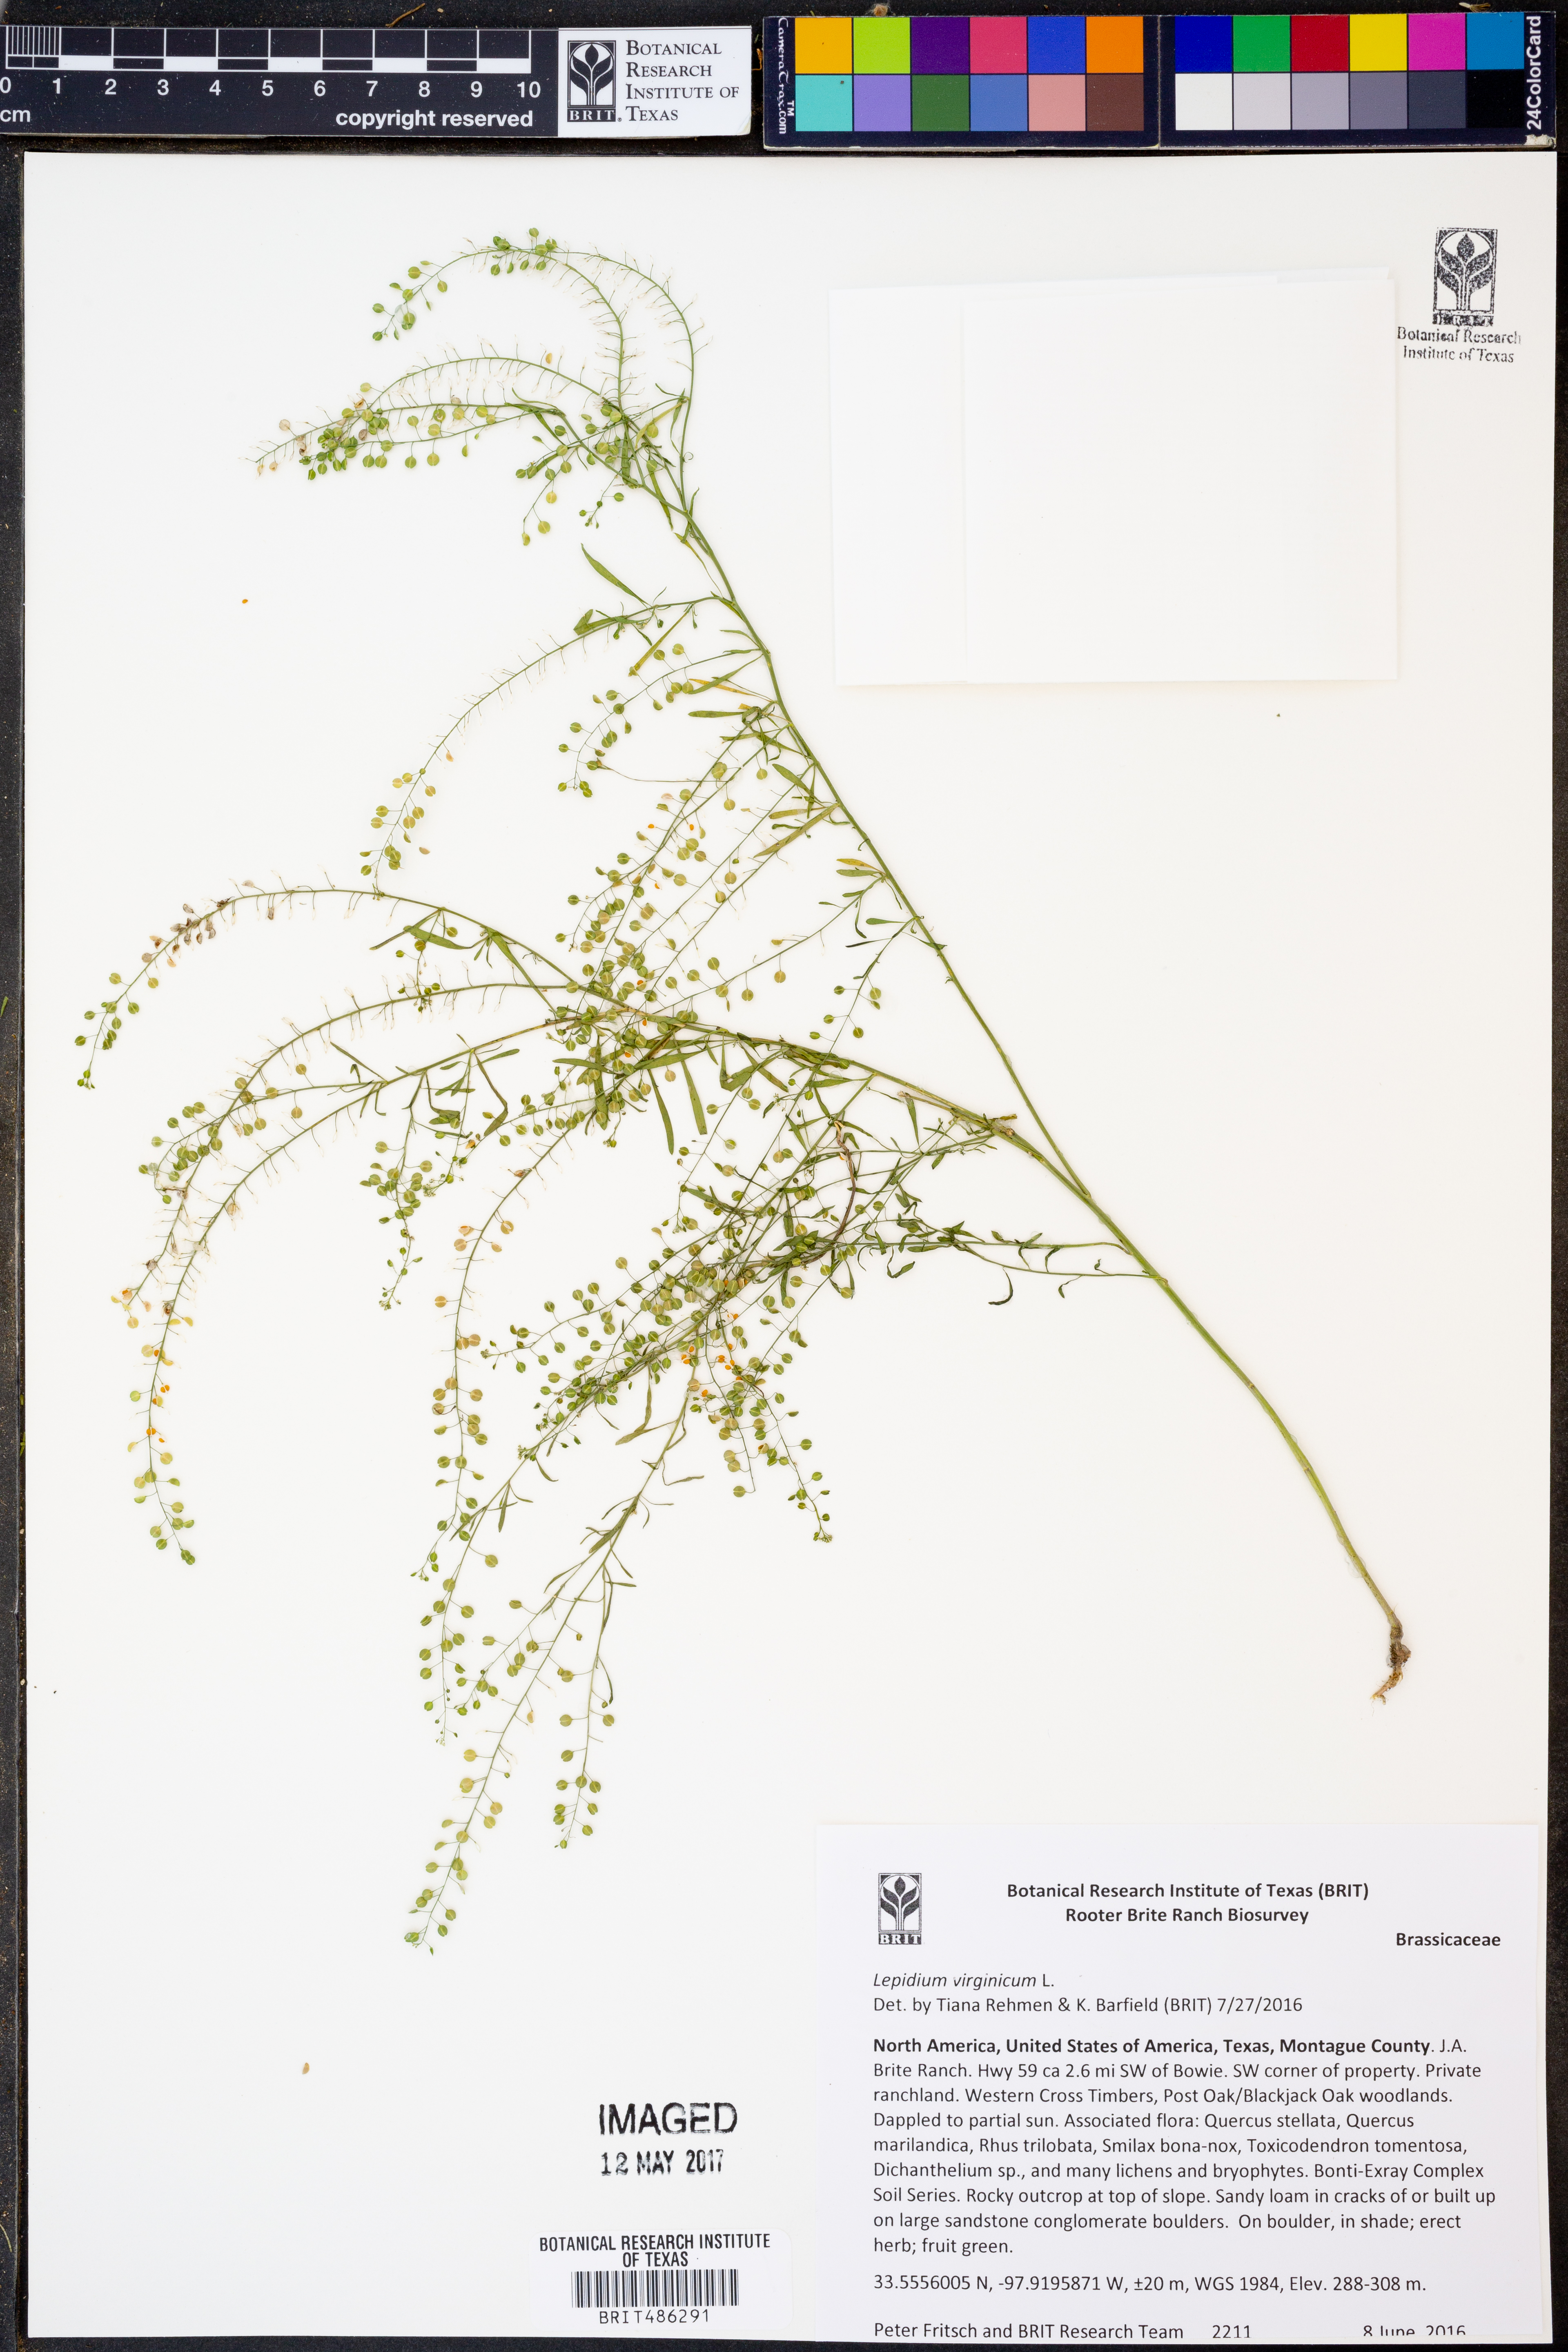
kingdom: Plantae
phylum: Tracheophyta
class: Magnoliopsida
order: Brassicales
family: Brassicaceae
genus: Lepidium
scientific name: Lepidium virginicum
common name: Least pepperwort
